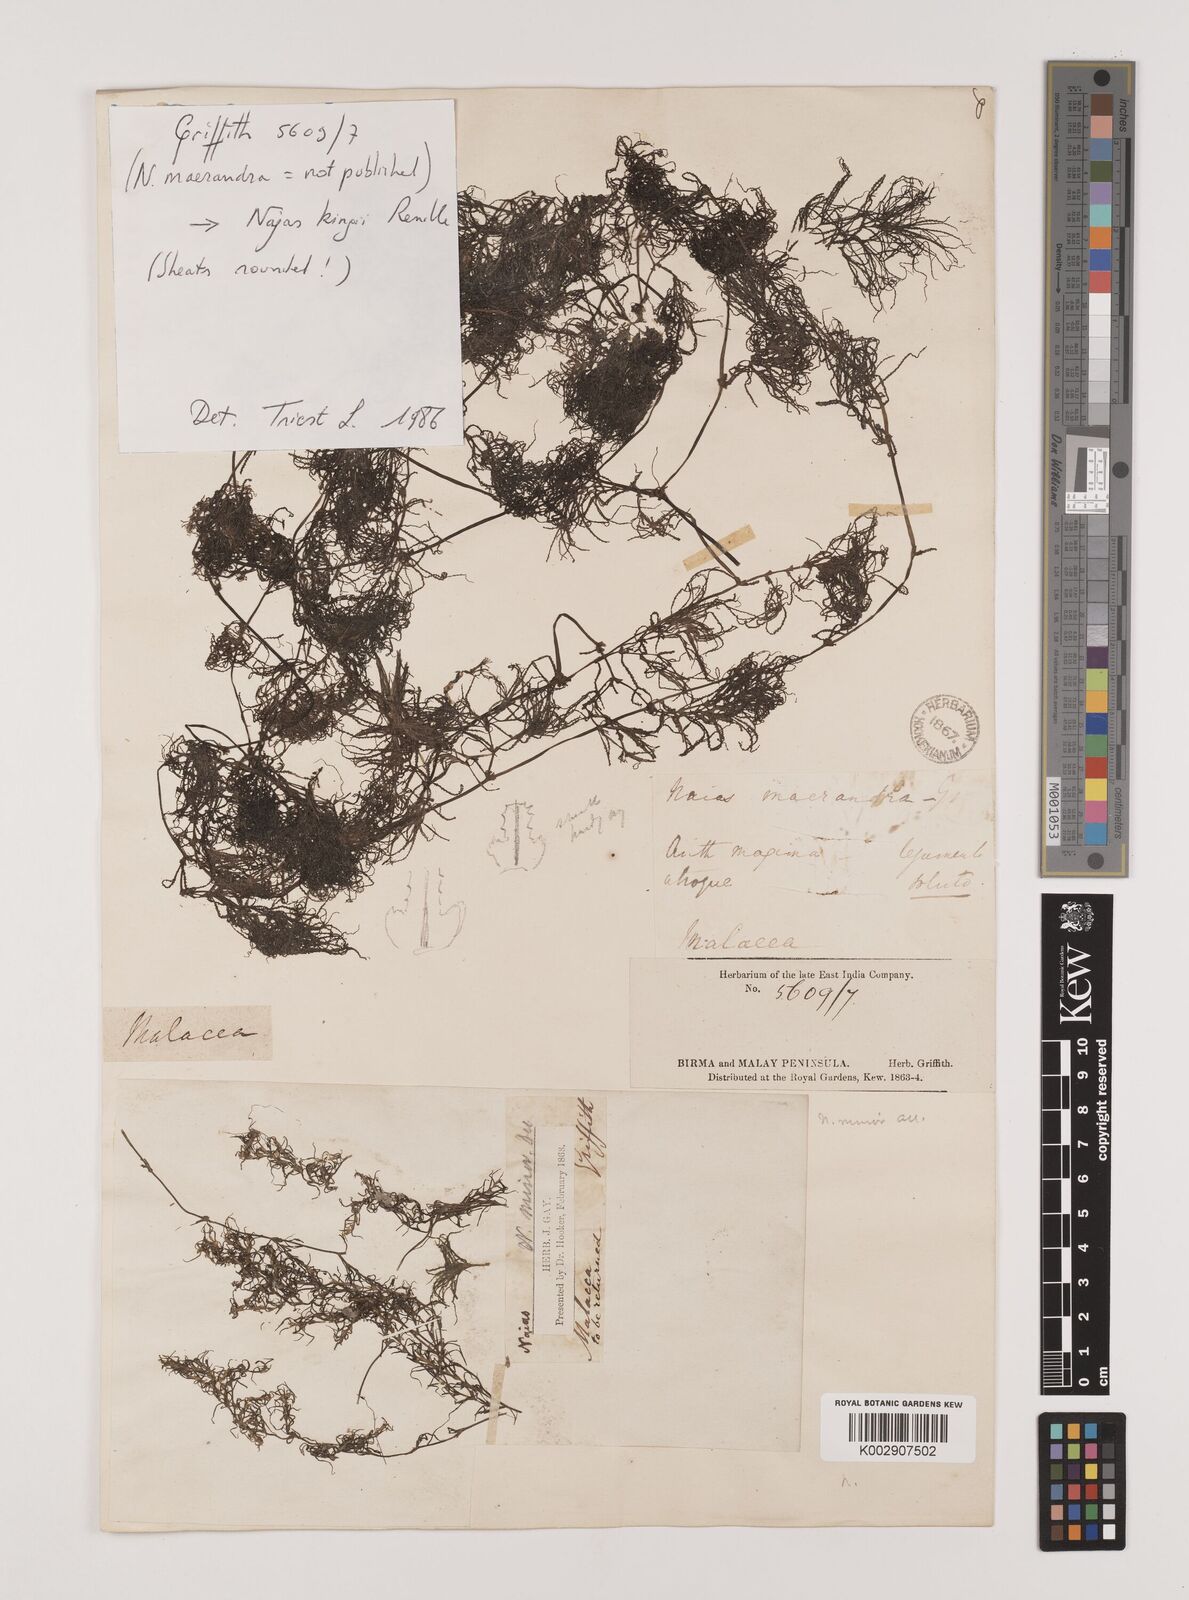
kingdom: Plantae
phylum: Tracheophyta
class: Liliopsida
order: Alismatales
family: Hydrocharitaceae
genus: Najas
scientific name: Najas indica
